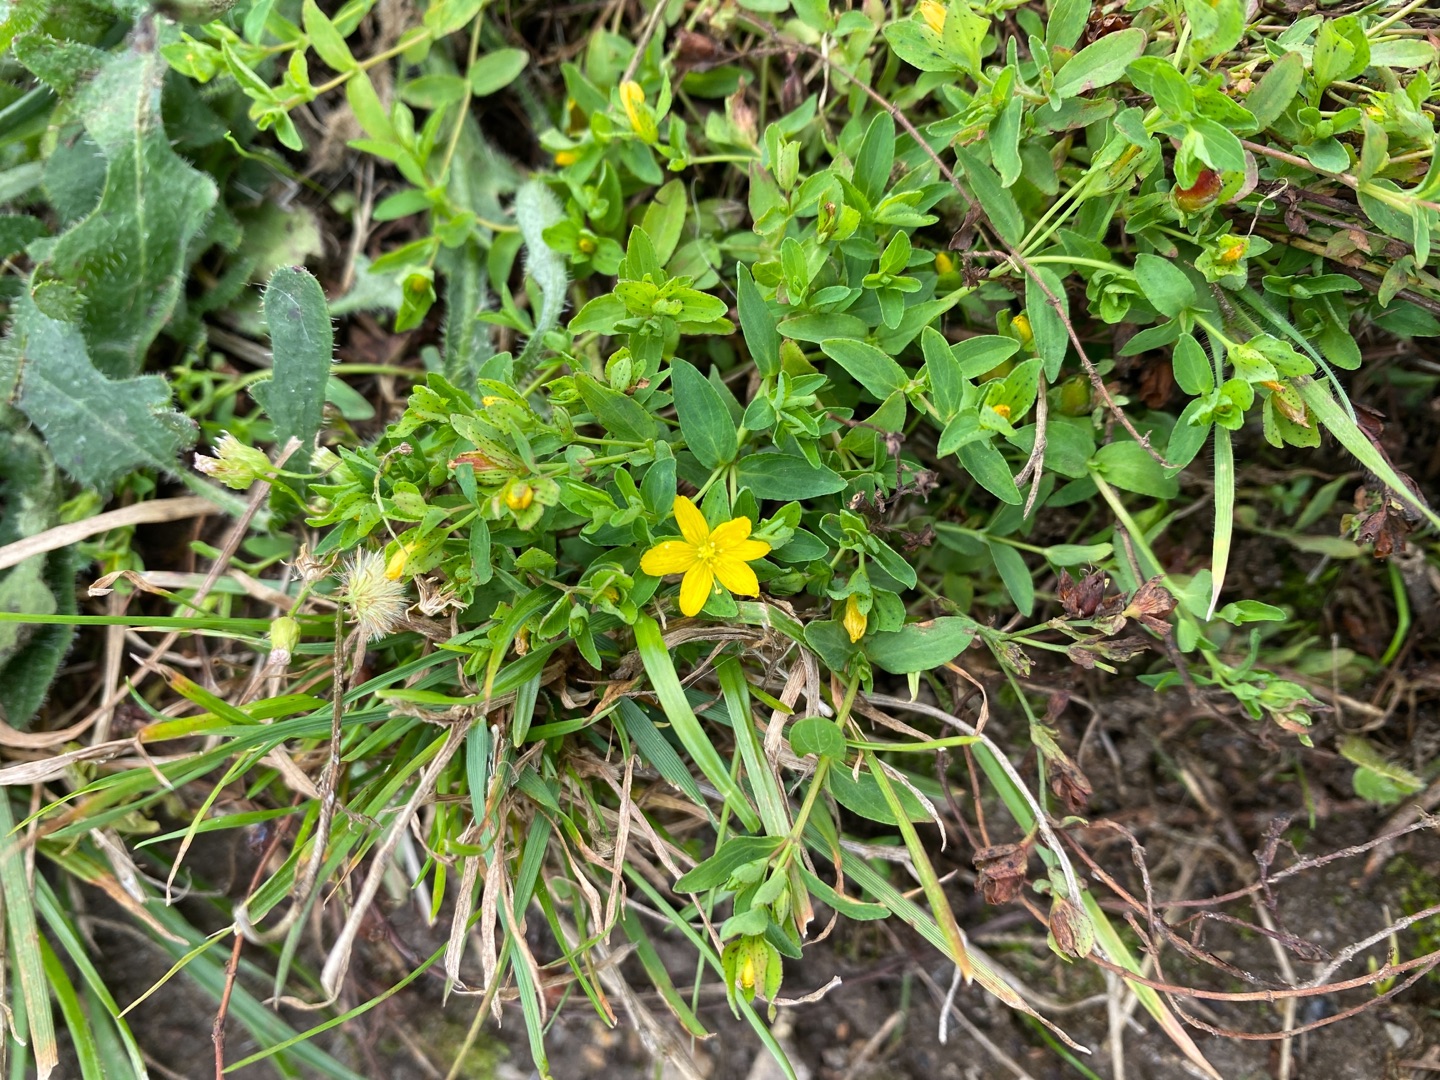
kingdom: Plantae
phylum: Tracheophyta
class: Magnoliopsida
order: Malpighiales
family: Hypericaceae
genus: Hypericum
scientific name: Hypericum humifusum
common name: Dværg-perikon
